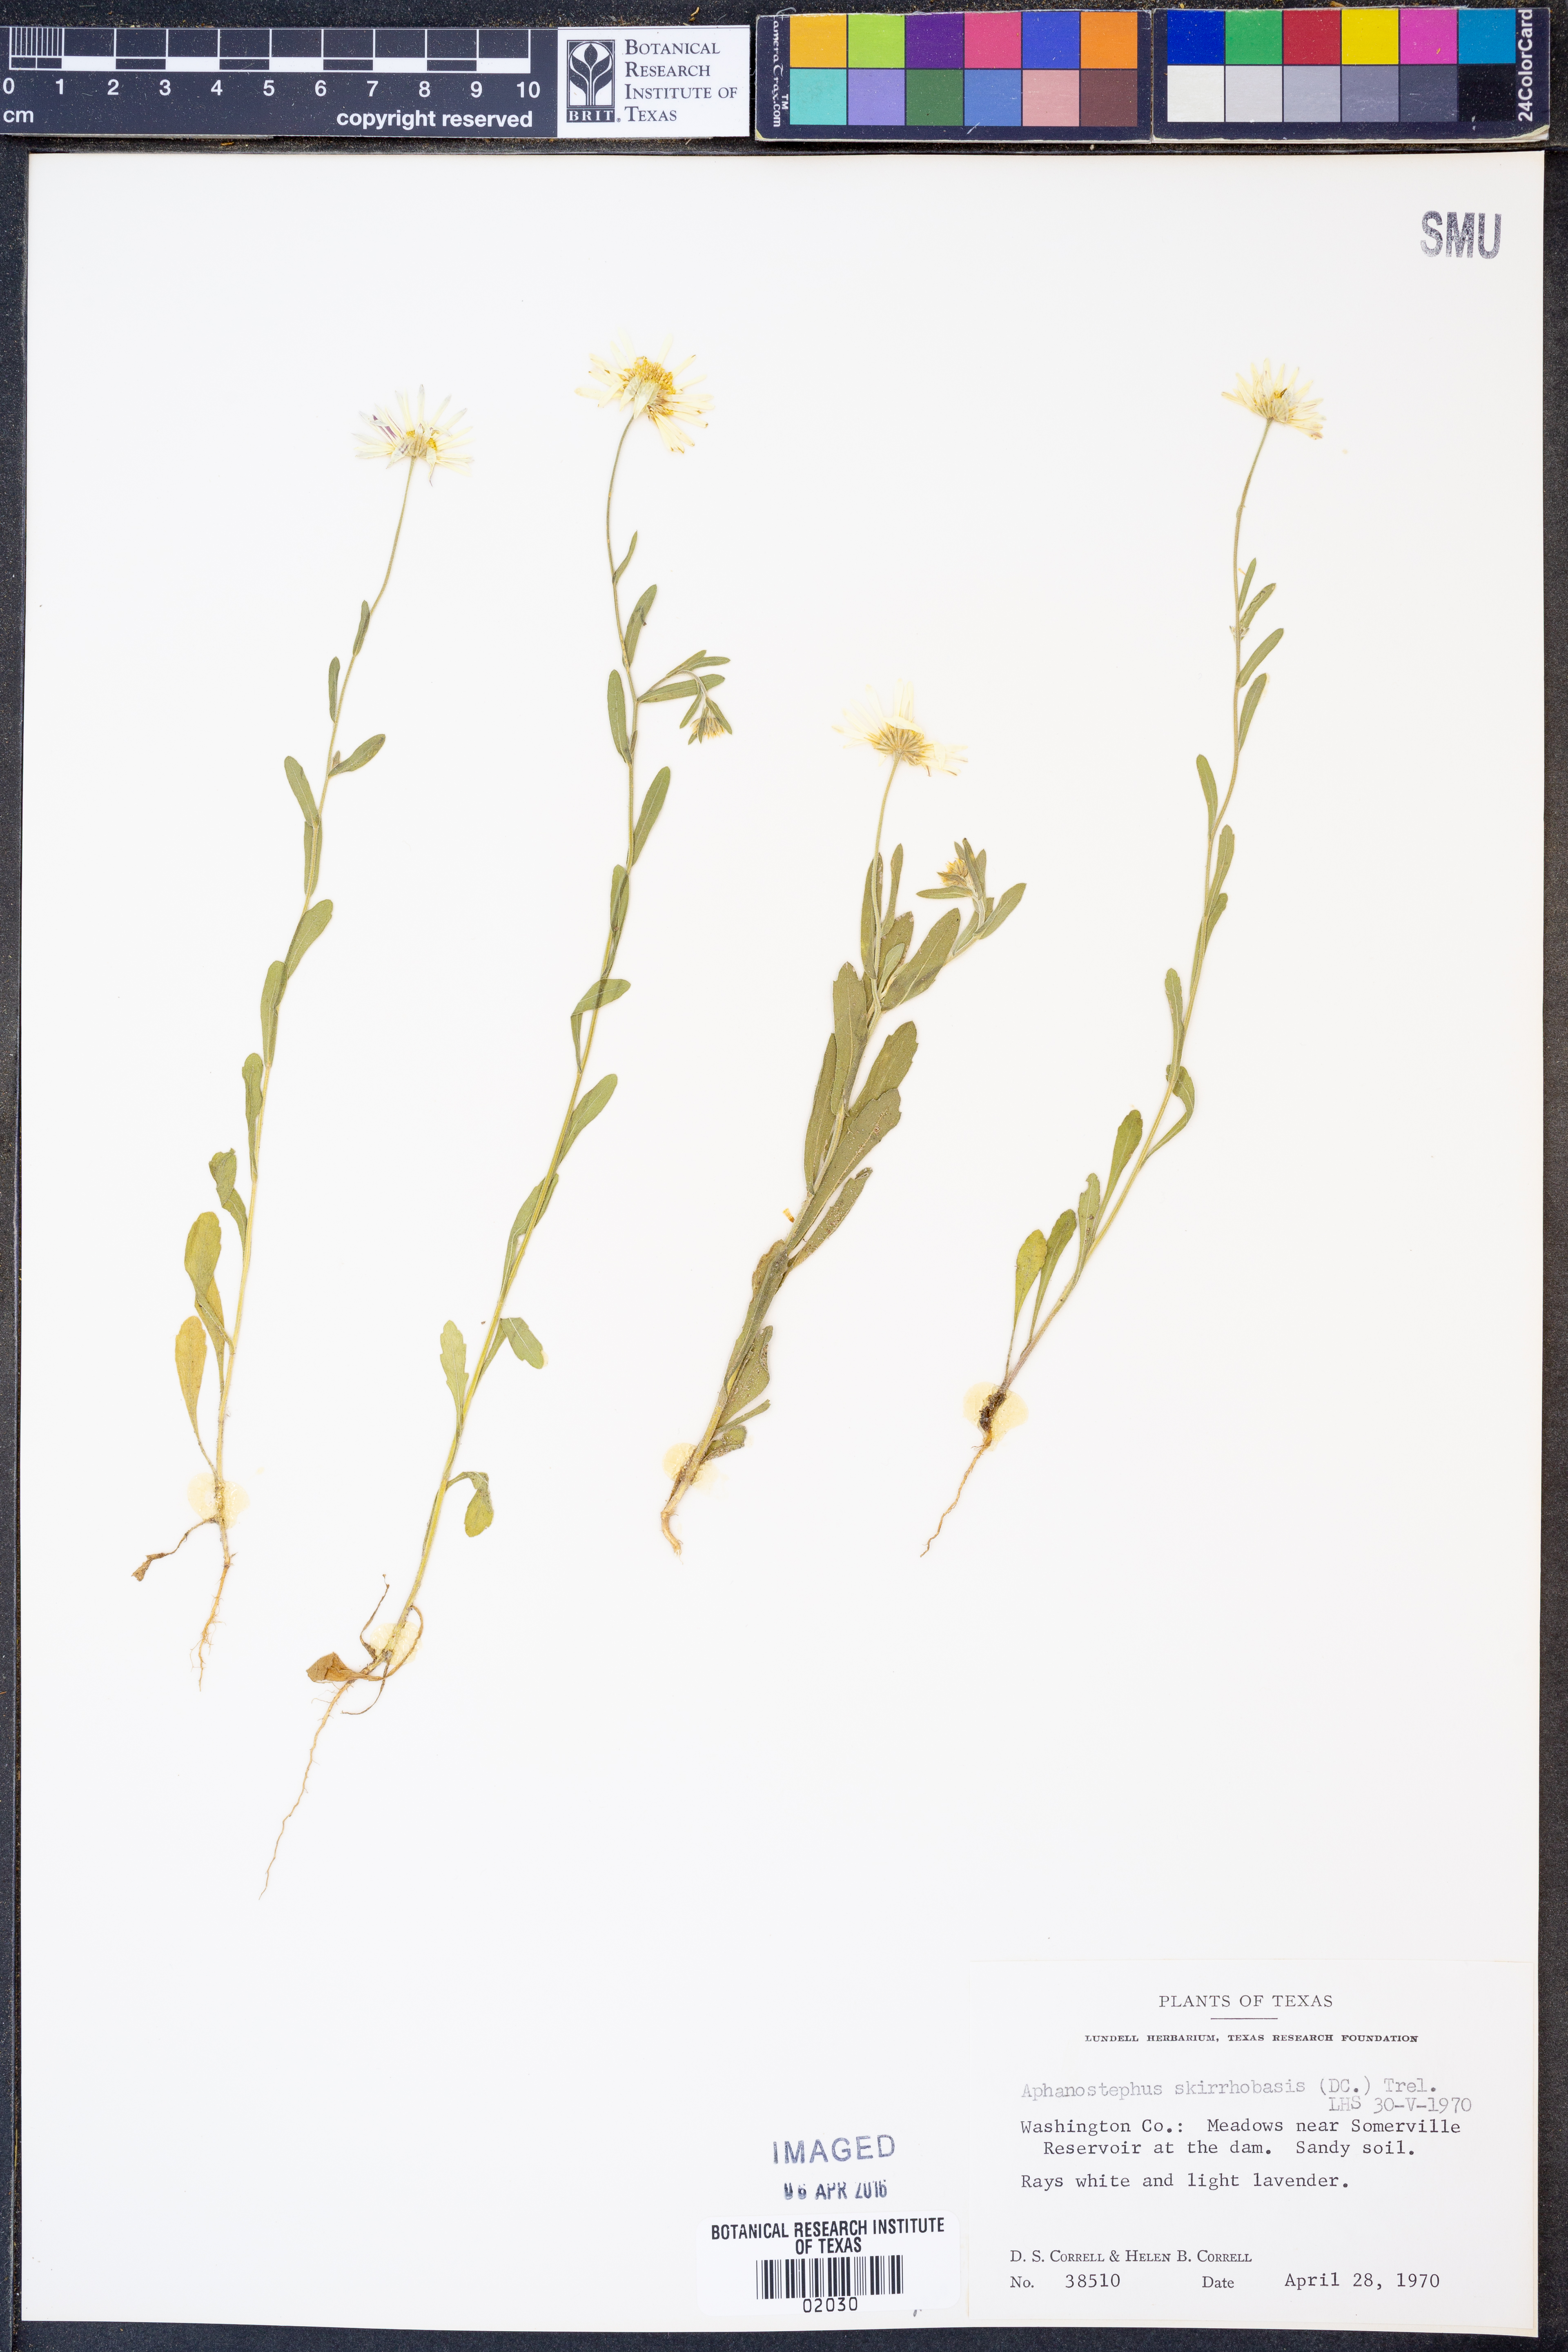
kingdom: Plantae
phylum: Tracheophyta
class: Magnoliopsida
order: Asterales
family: Asteraceae
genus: Aphanostephus
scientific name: Aphanostephus skirrhobasis
